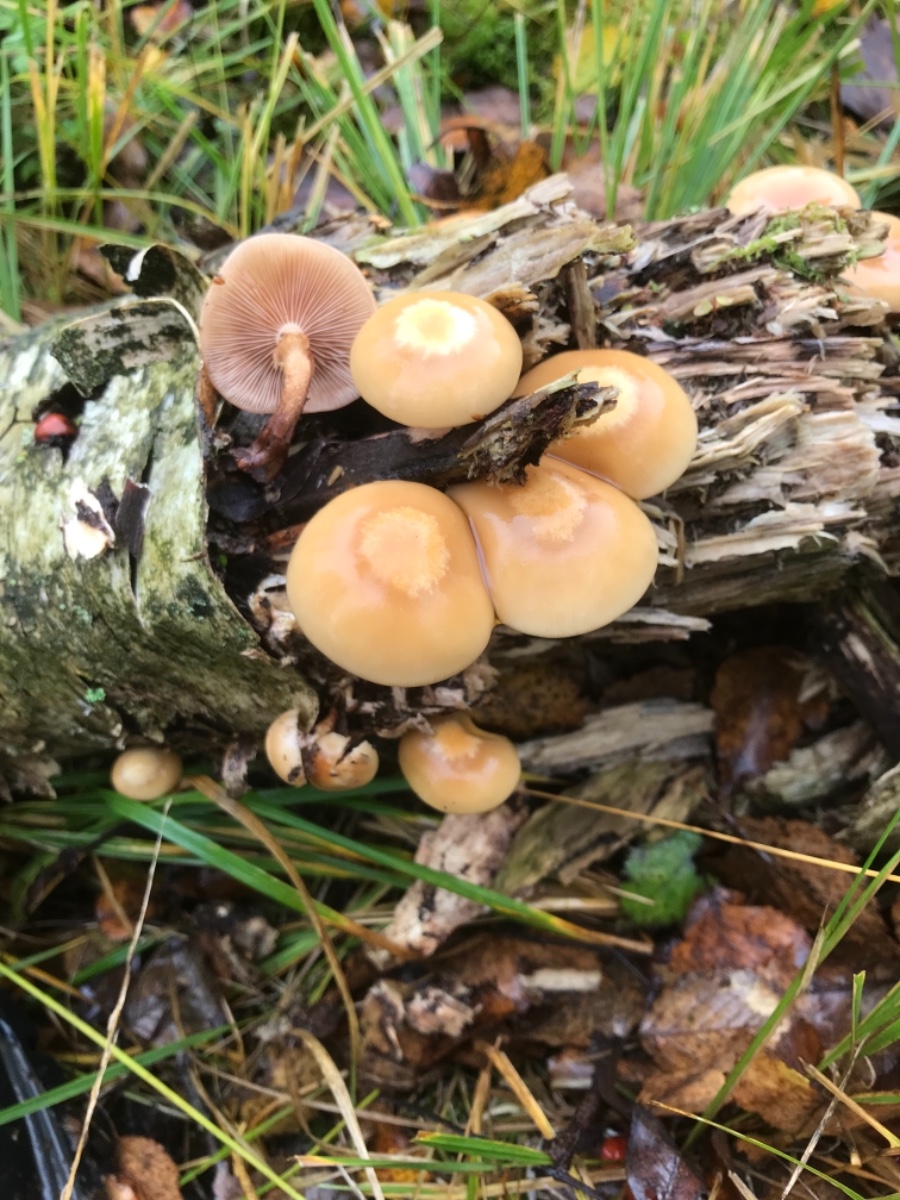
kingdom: Fungi
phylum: Basidiomycota
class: Agaricomycetes
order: Agaricales
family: Strophariaceae
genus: Kuehneromyces
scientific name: Kuehneromyces mutabilis
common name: foranderlig skælhat
